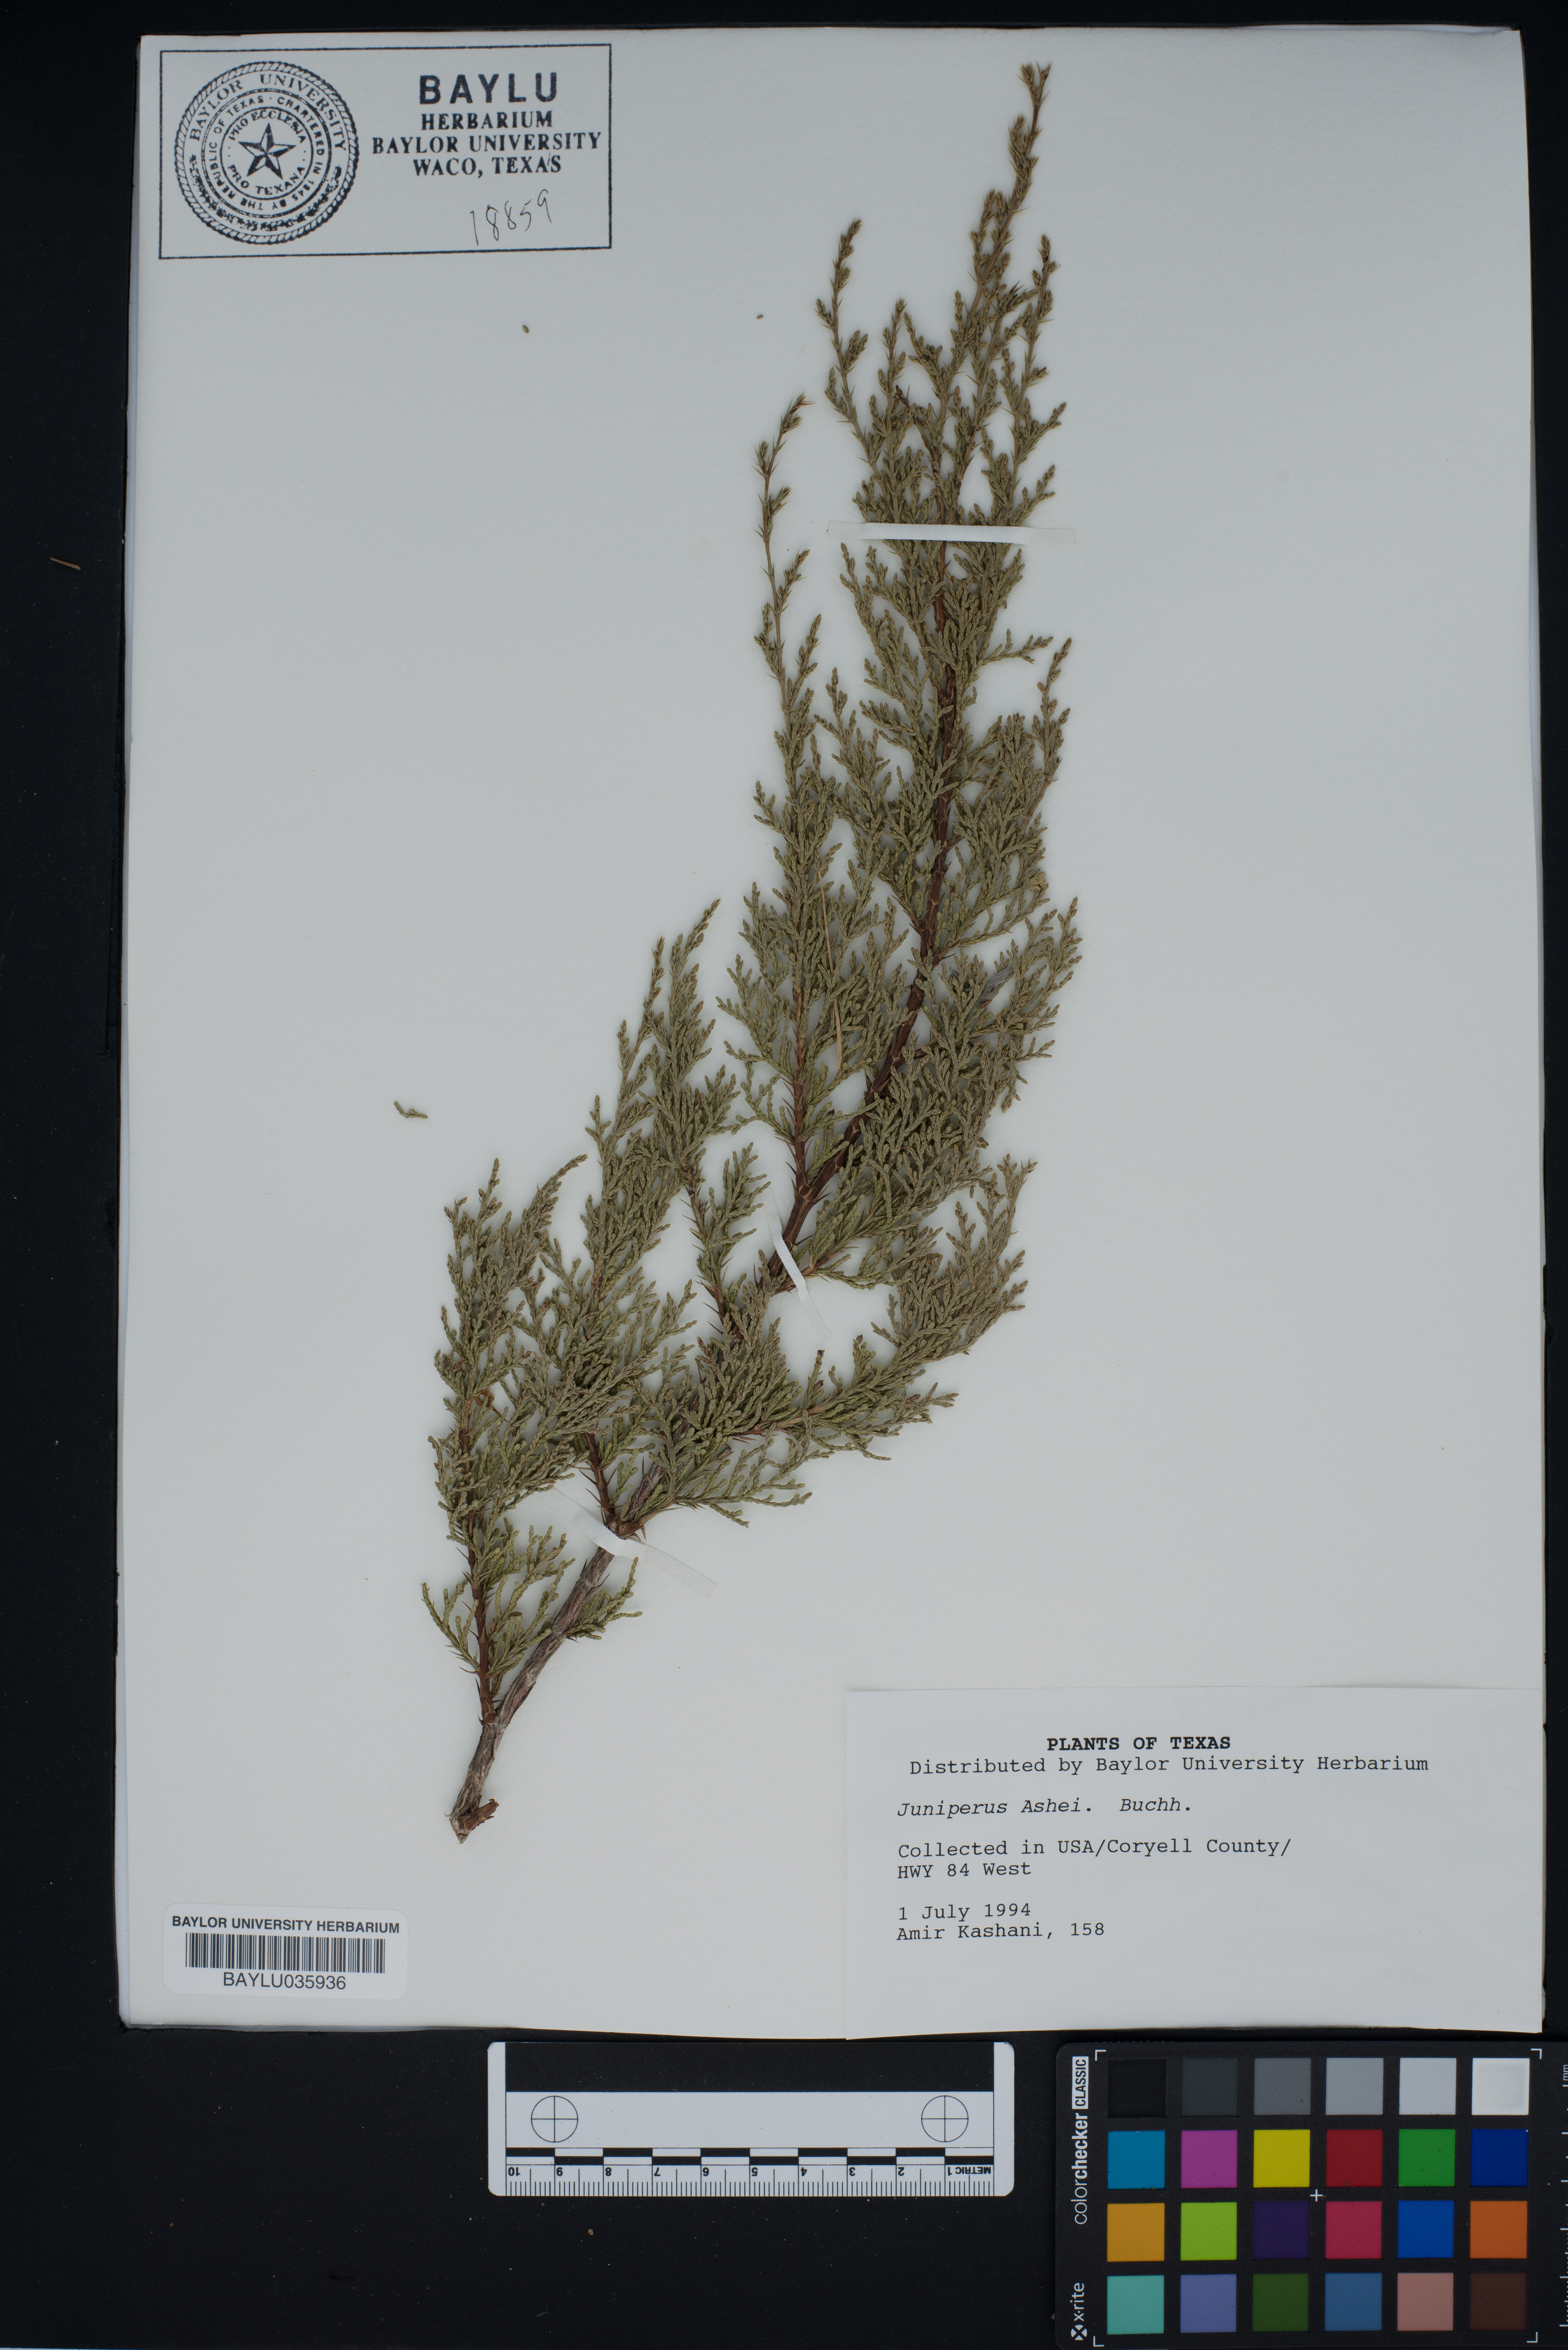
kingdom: Plantae
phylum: Tracheophyta
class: Pinopsida
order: Pinales
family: Cupressaceae
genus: Juniperus
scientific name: Juniperus ashei
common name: Mexican juniper
